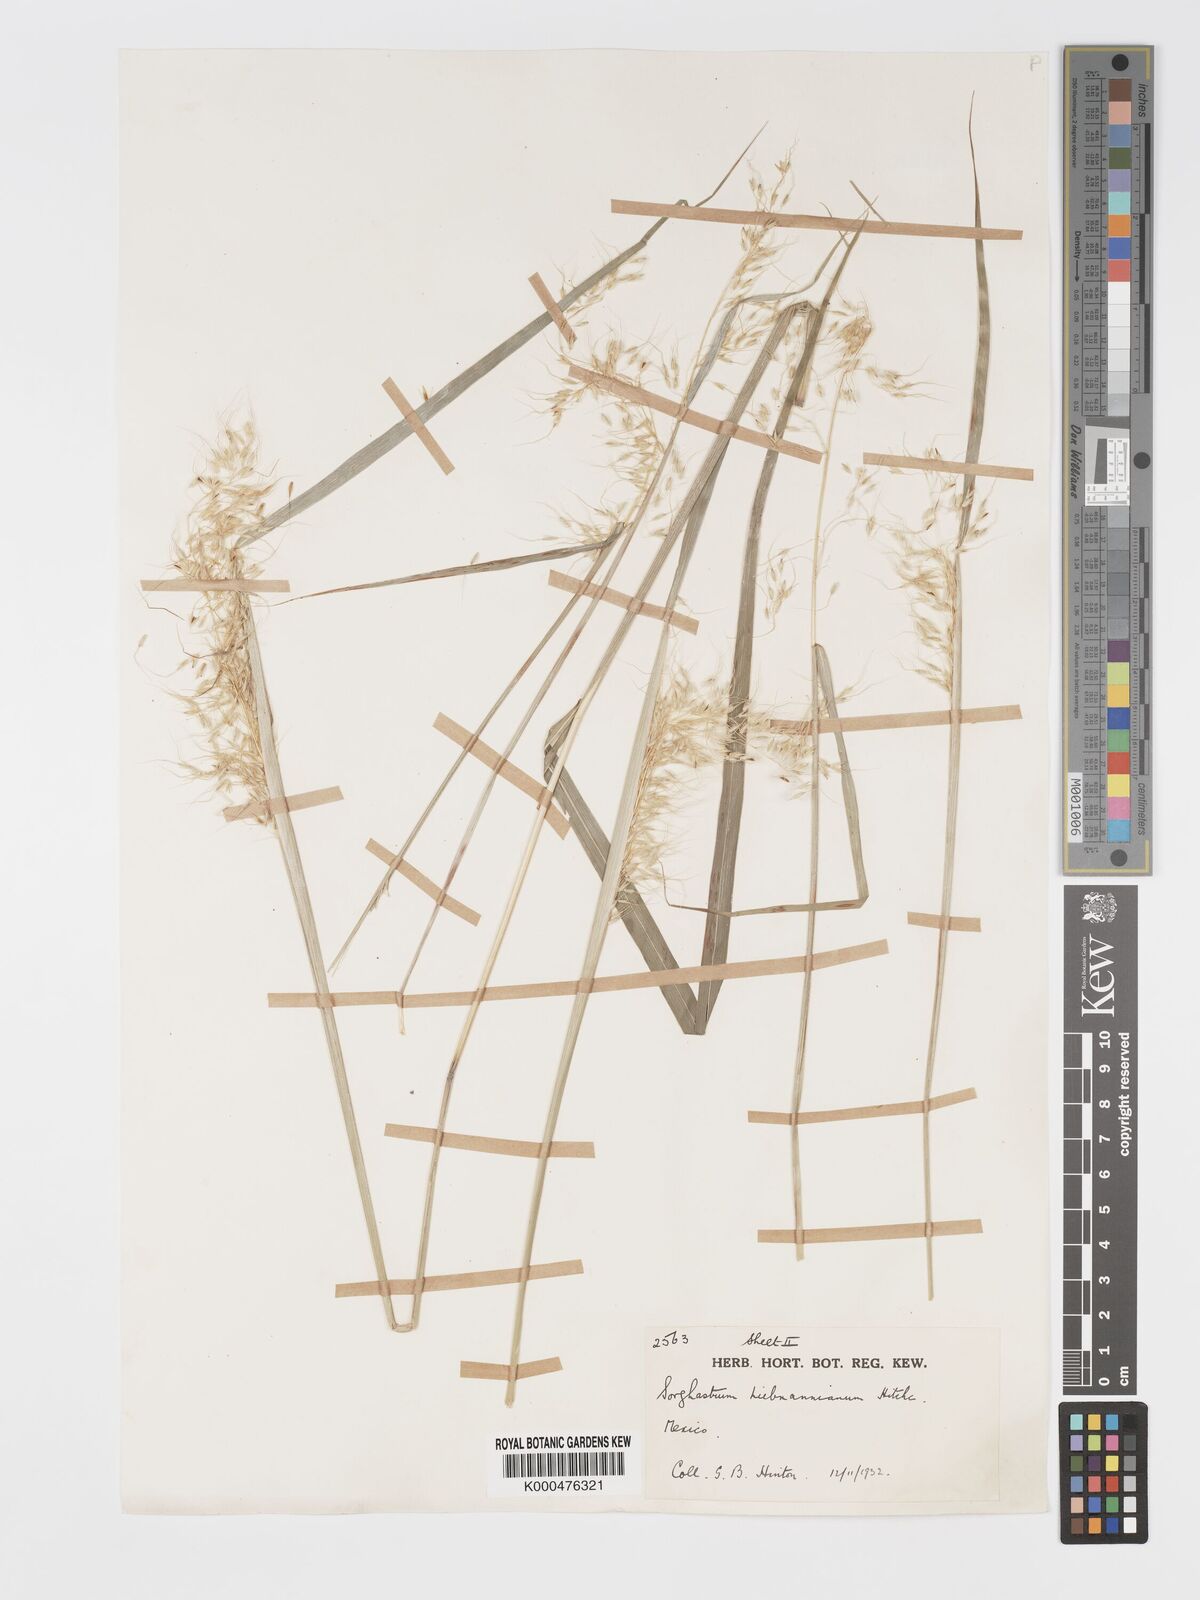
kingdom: Plantae
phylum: Tracheophyta
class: Liliopsida
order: Poales
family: Poaceae
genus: Sorghastrum
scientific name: Sorghastrum incompletum
